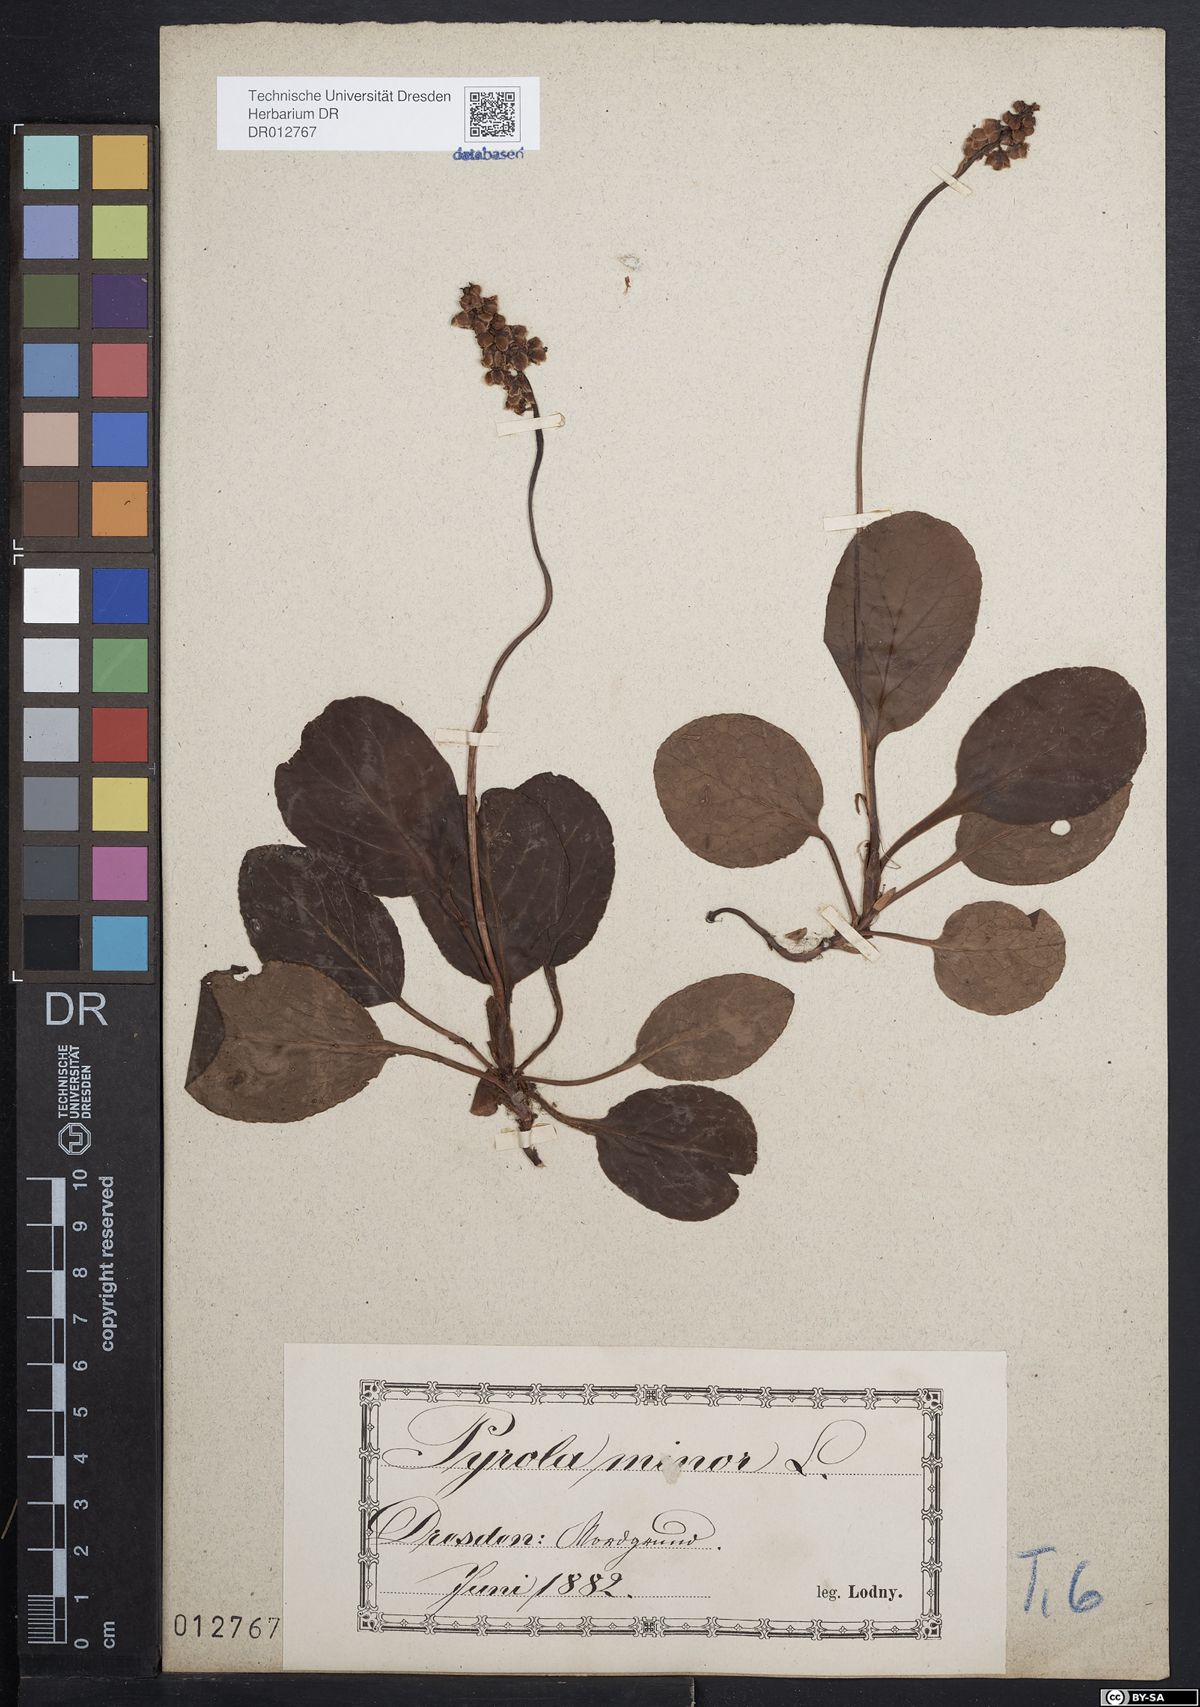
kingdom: Plantae
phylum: Tracheophyta
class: Magnoliopsida
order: Ericales
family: Ericaceae
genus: Pyrola
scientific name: Pyrola minor
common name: Common wintergreen
